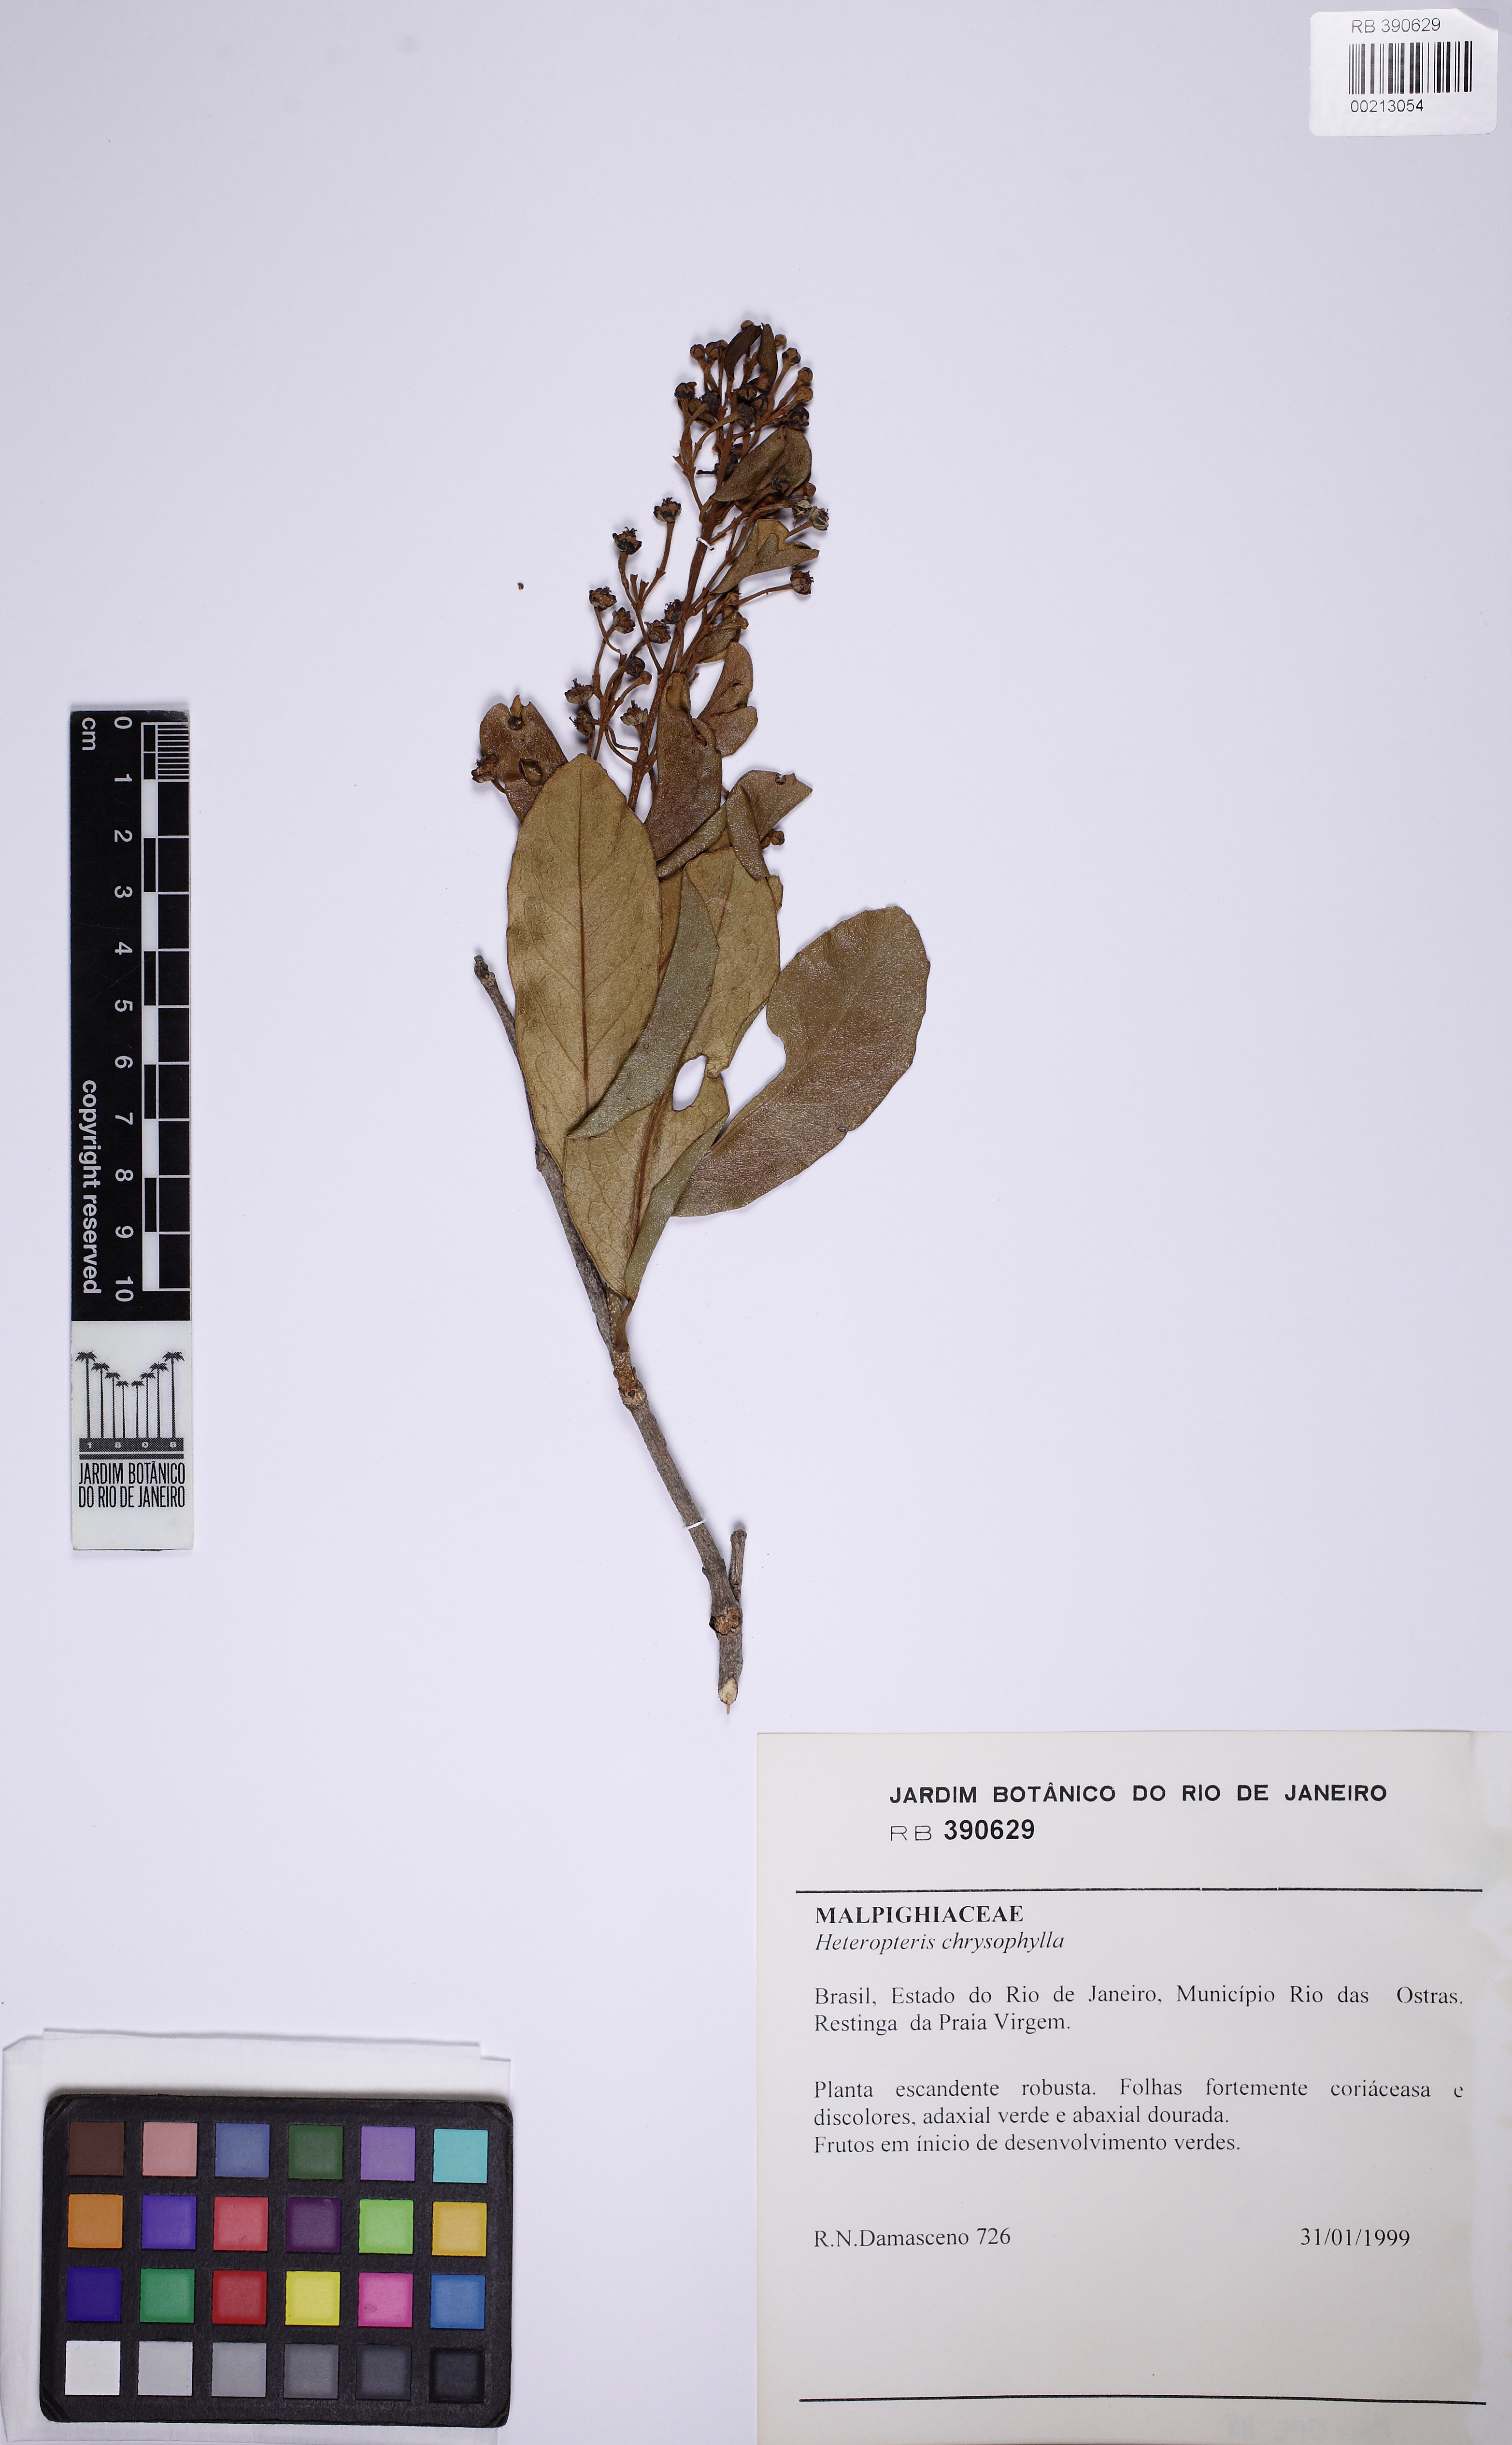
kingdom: Plantae
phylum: Tracheophyta
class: Magnoliopsida
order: Malpighiales
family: Malpighiaceae
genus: Heteropterys
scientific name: Heteropterys chrysophylla
